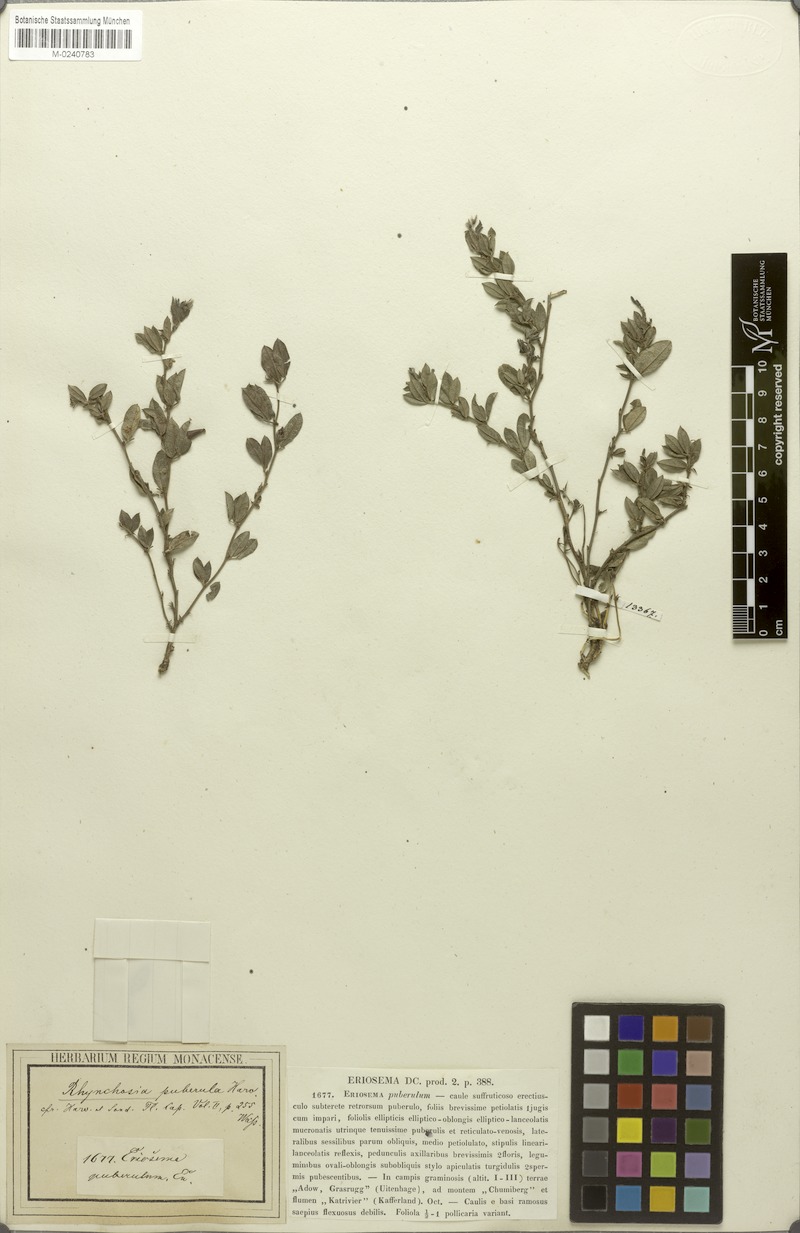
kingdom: Plantae
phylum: Tracheophyta
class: Magnoliopsida
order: Fabales
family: Fabaceae
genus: Rhynchosia
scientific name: Rhynchosia ciliata
